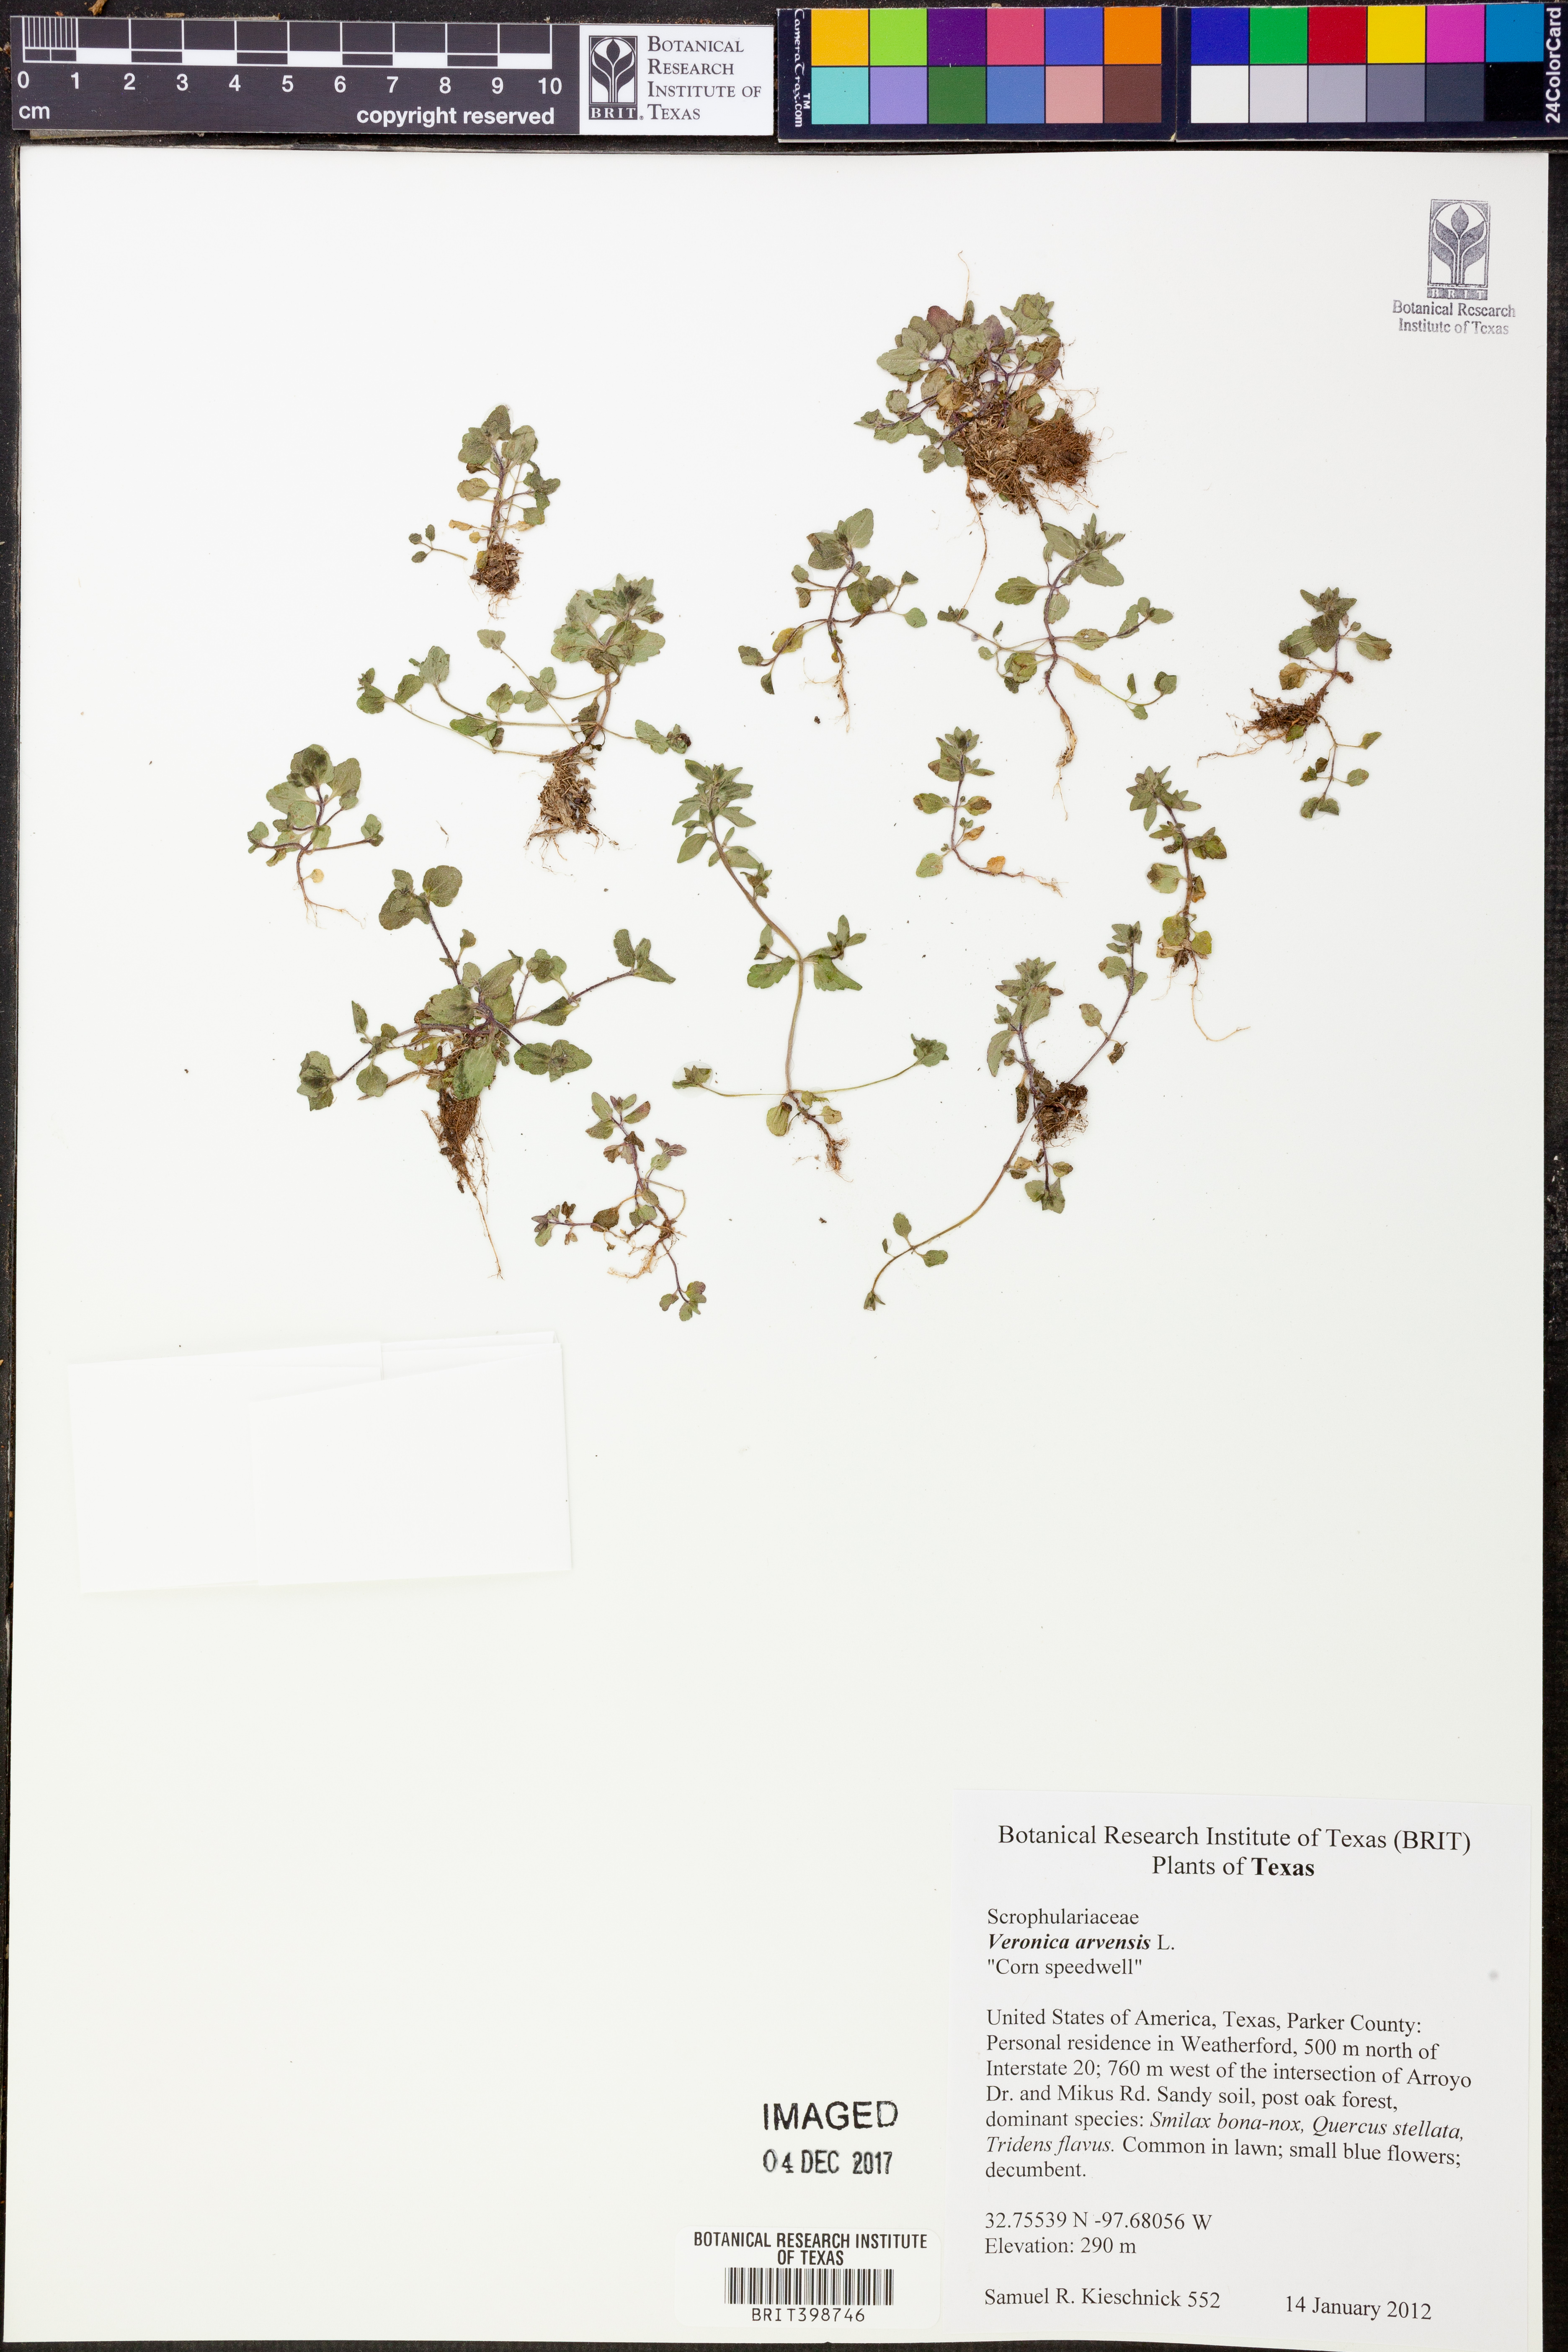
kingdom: Plantae
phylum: Tracheophyta
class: Magnoliopsida
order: Lamiales
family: Plantaginaceae
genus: Veronica
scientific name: Veronica arvensis
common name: Corn speedwell
